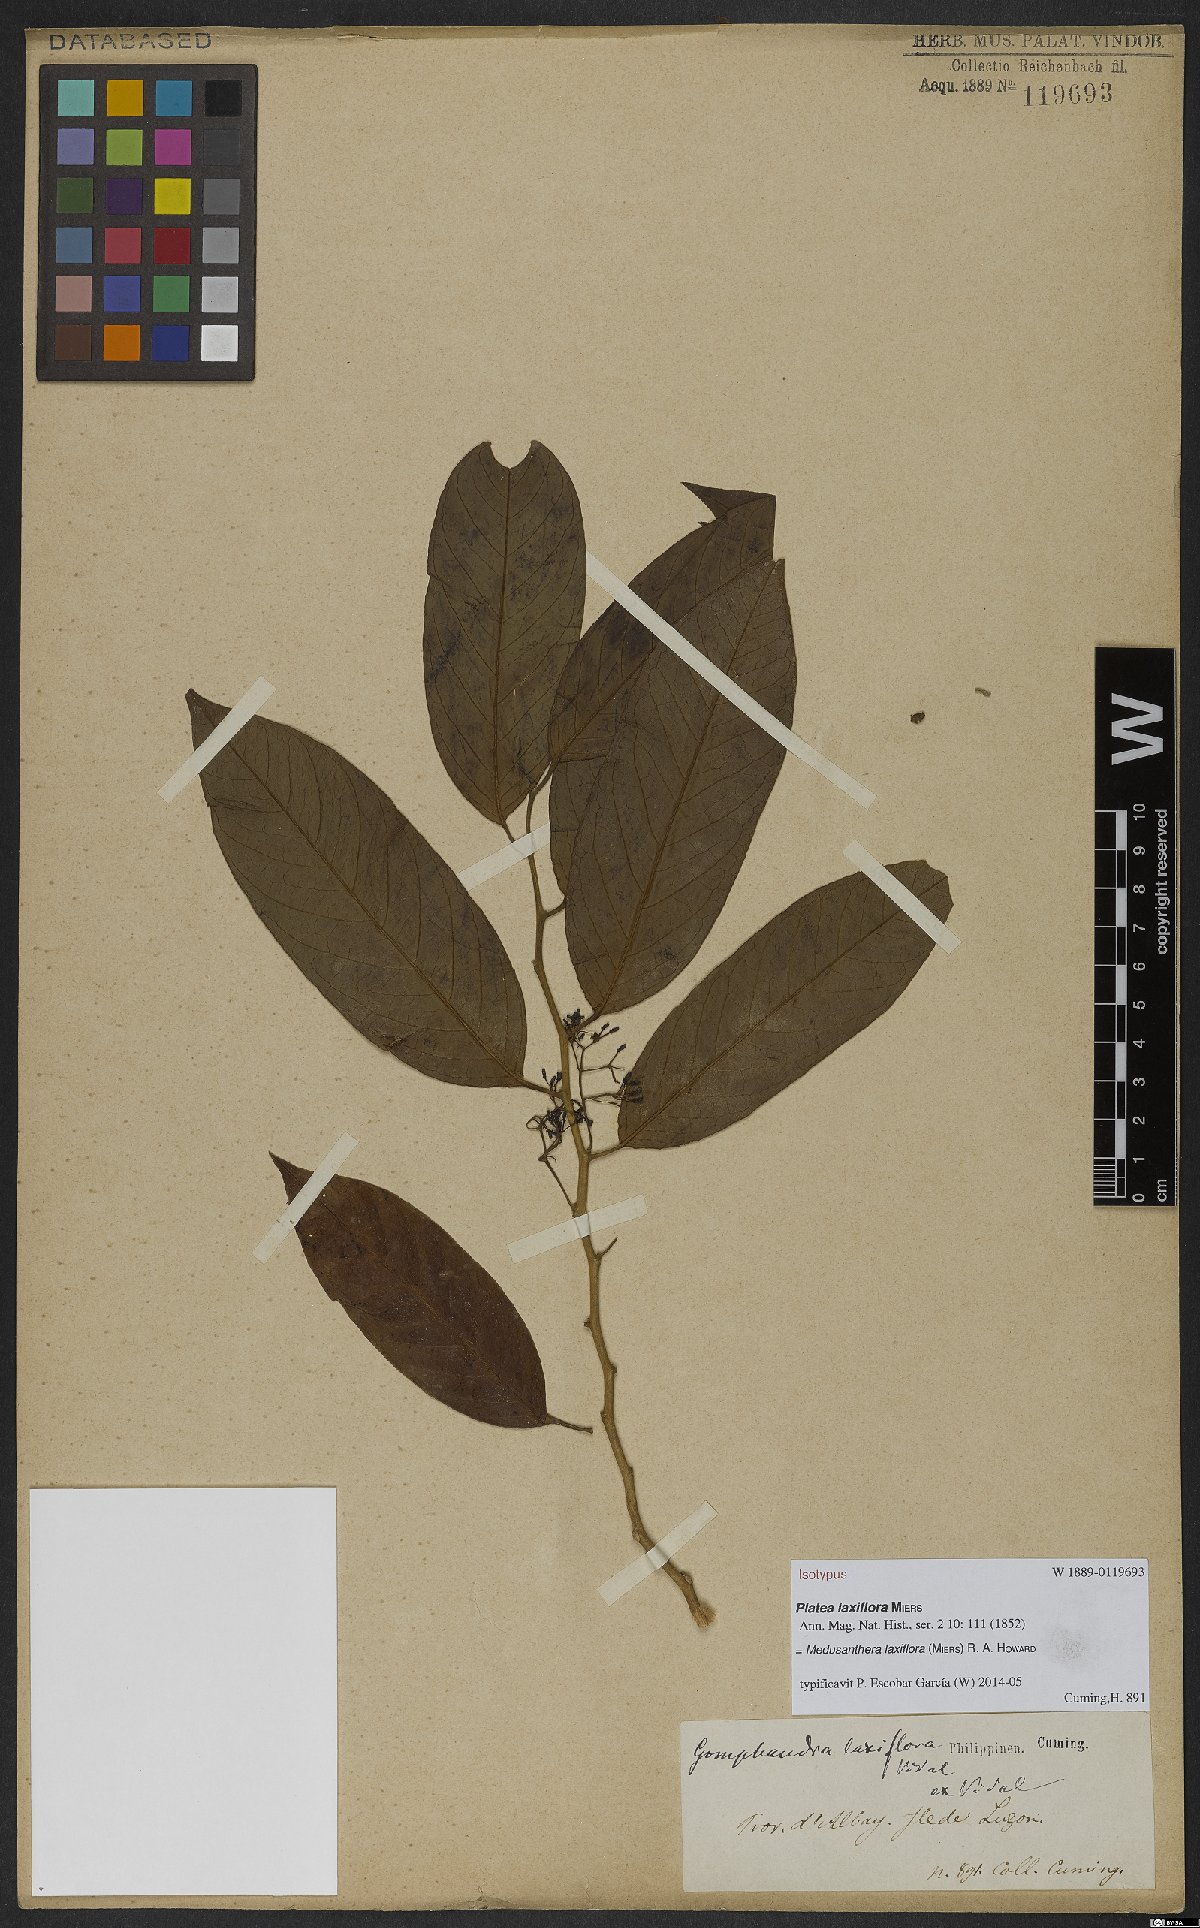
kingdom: Plantae
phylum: Tracheophyta
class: Magnoliopsida
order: Cardiopteridales
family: Stemonuraceae
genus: Medusanthera
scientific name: Medusanthera laxiflora
